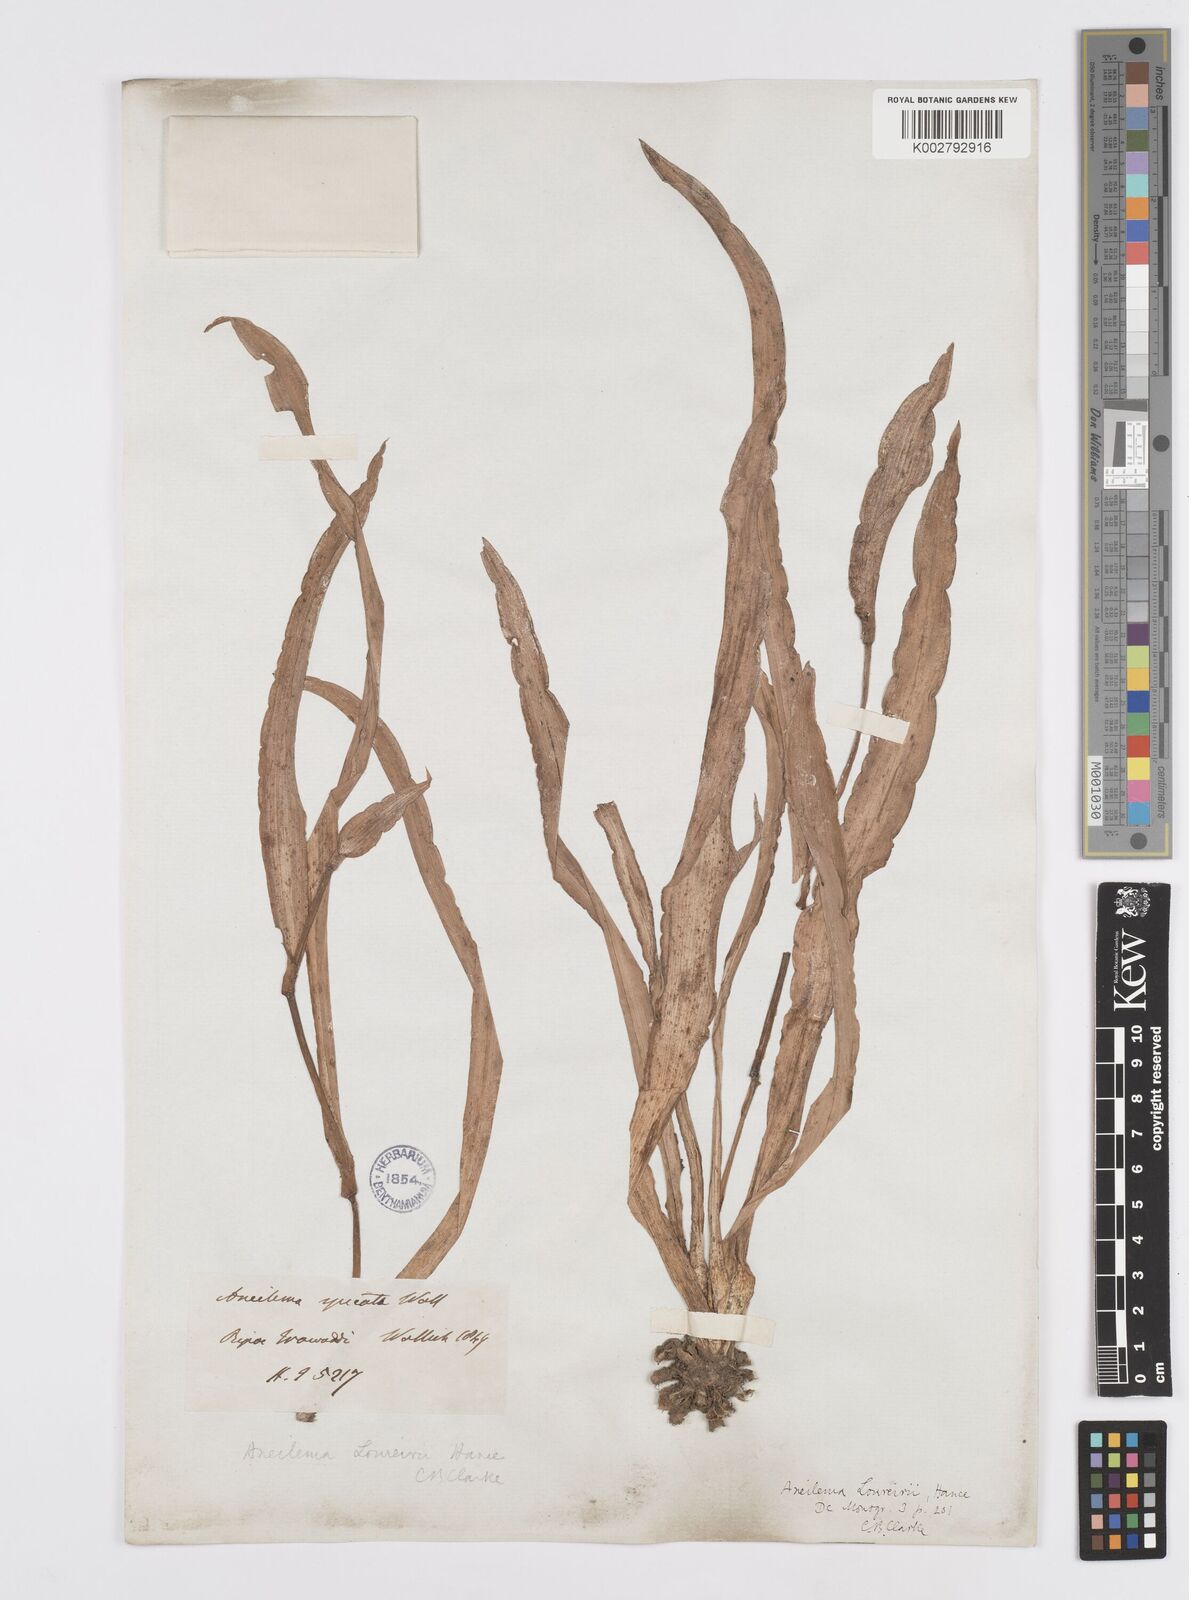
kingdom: Plantae
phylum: Tracheophyta
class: Liliopsida
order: Commelinales
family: Commelinaceae
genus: Murdannia
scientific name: Murdannia edulis
